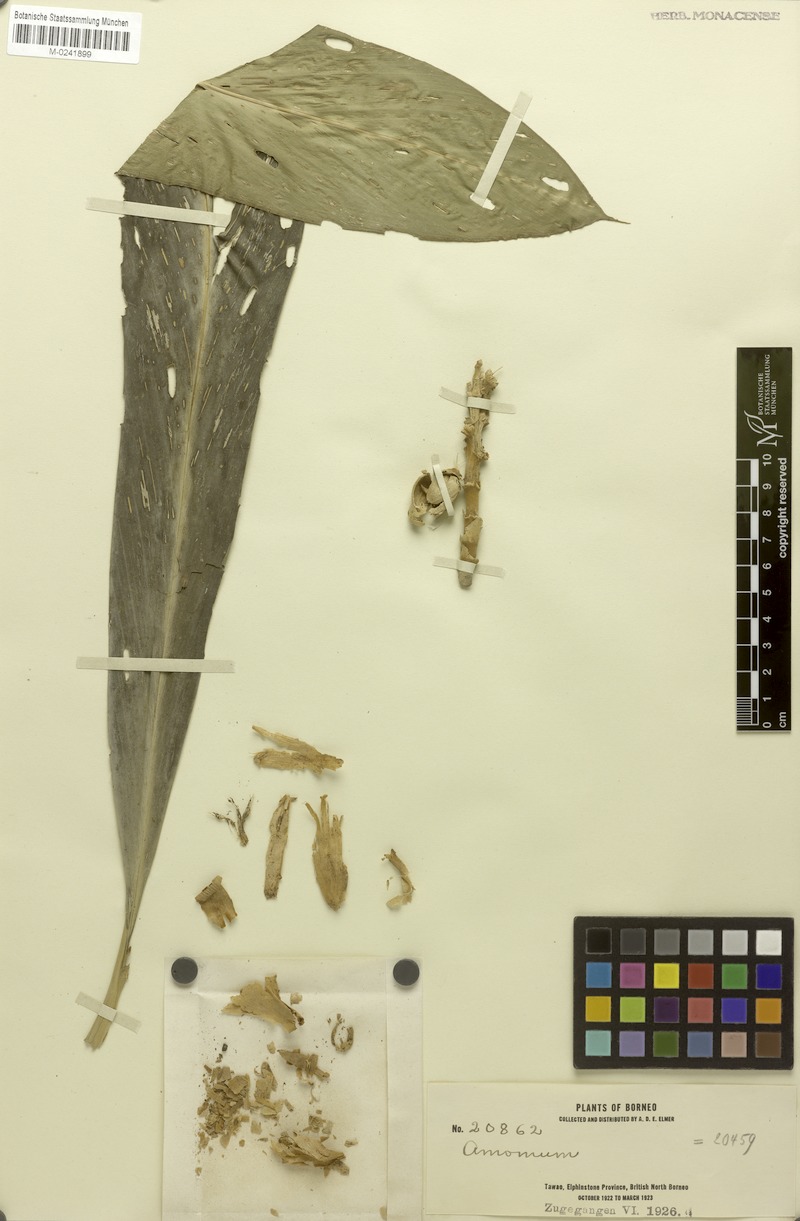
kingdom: Plantae
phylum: Tracheophyta
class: Liliopsida
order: Zingiberales
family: Zingiberaceae
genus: Amomum
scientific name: Amomum
